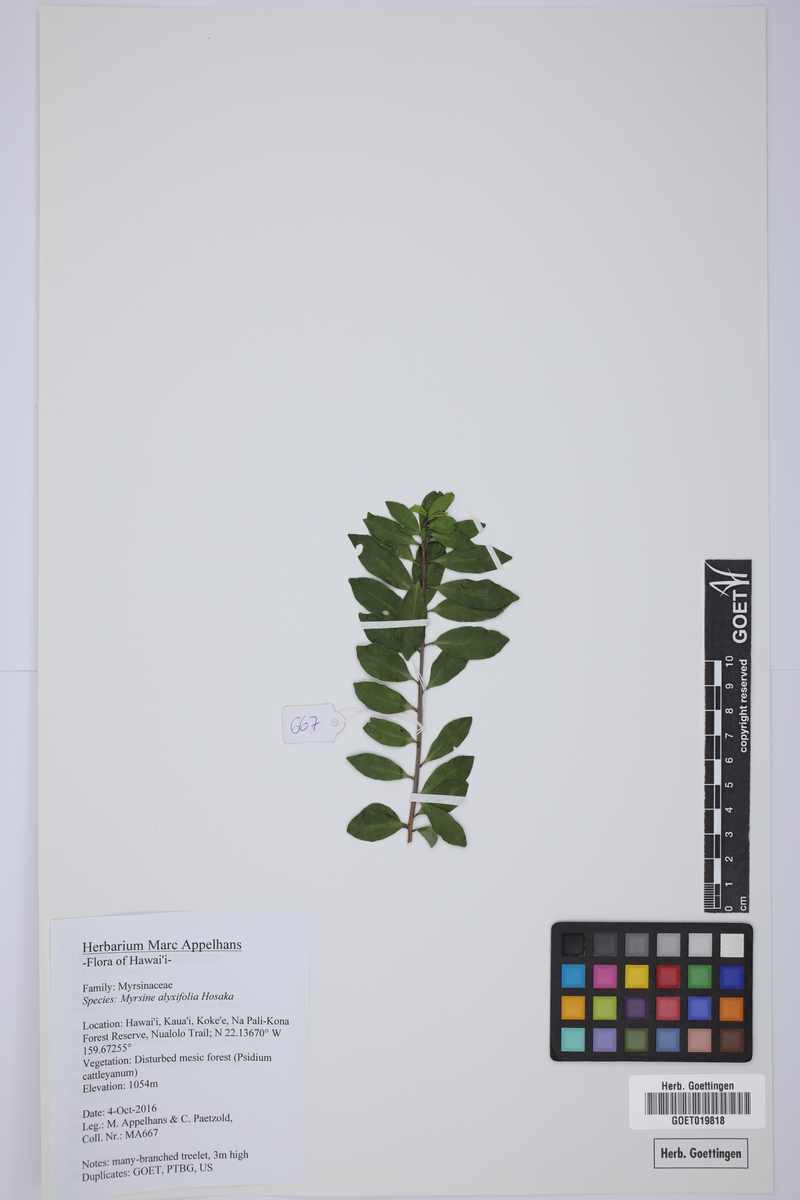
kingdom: Plantae
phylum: Tracheophyta
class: Magnoliopsida
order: Ericales
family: Primulaceae
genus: Myrsine
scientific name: Myrsine alyxifolia
